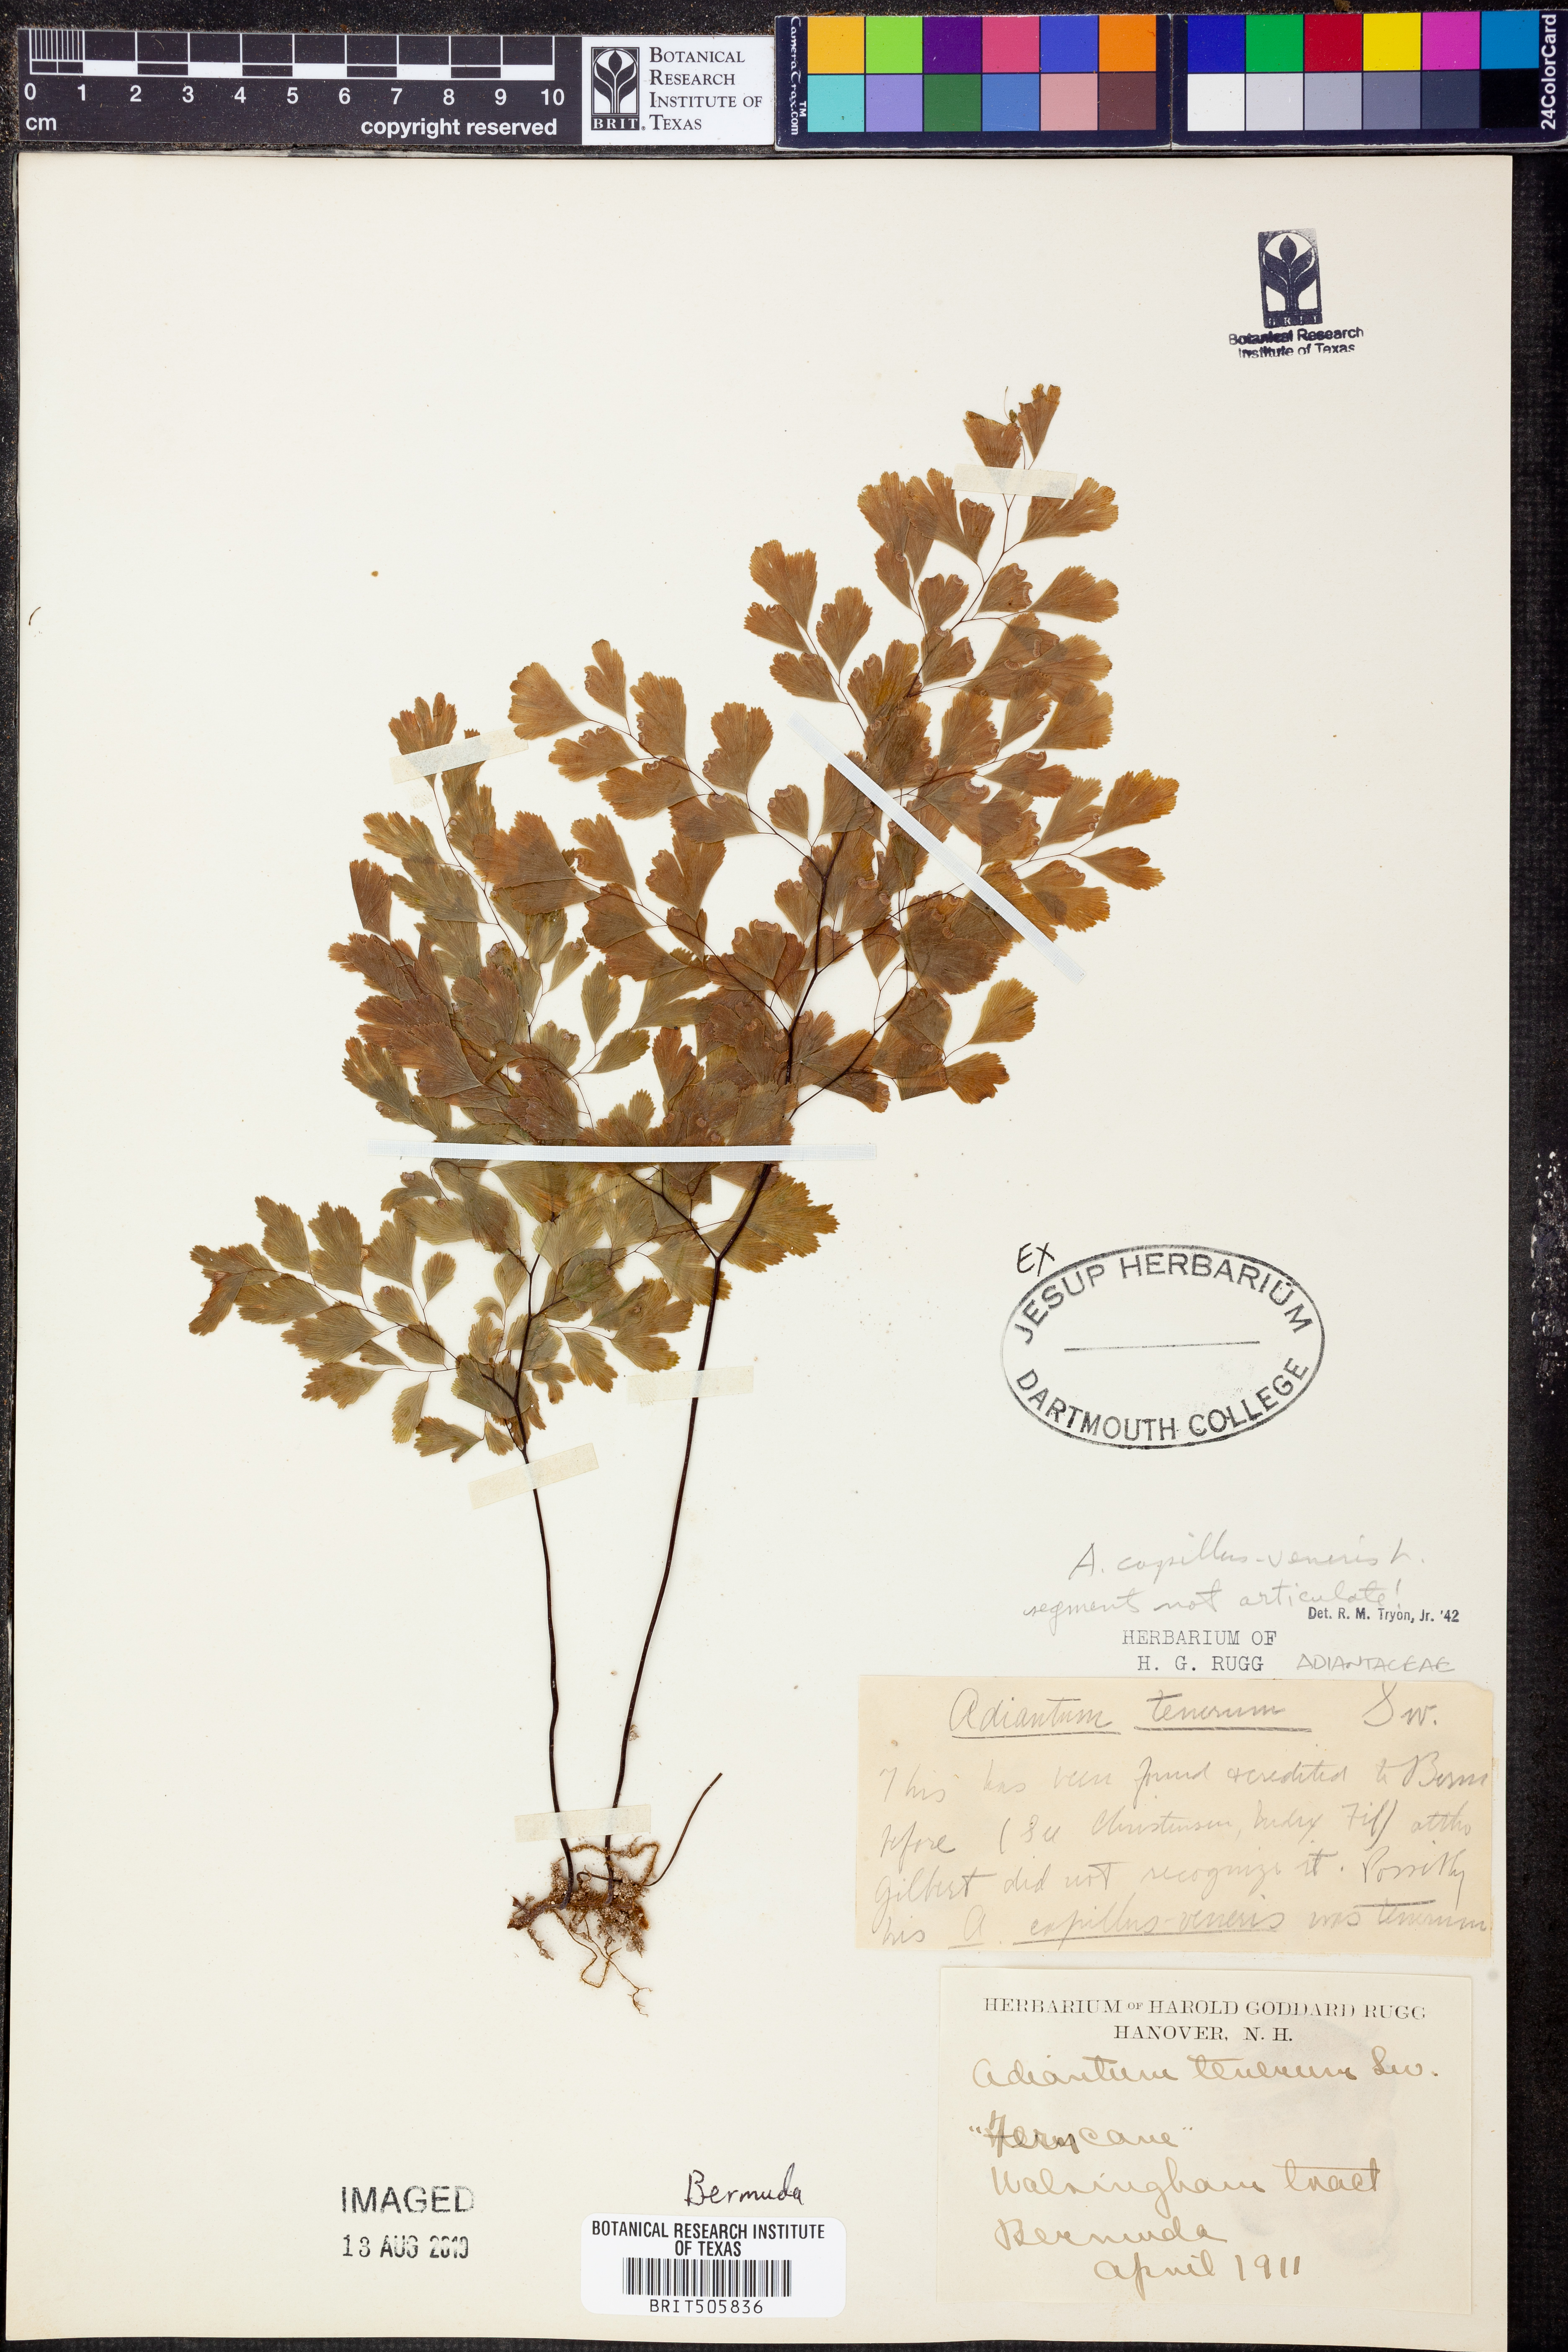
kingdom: Plantae
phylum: Tracheophyta
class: Polypodiopsida
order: Polypodiales
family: Pteridaceae
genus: Adiantum
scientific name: Adiantum capillus-veneris
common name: Maidenhair fern
